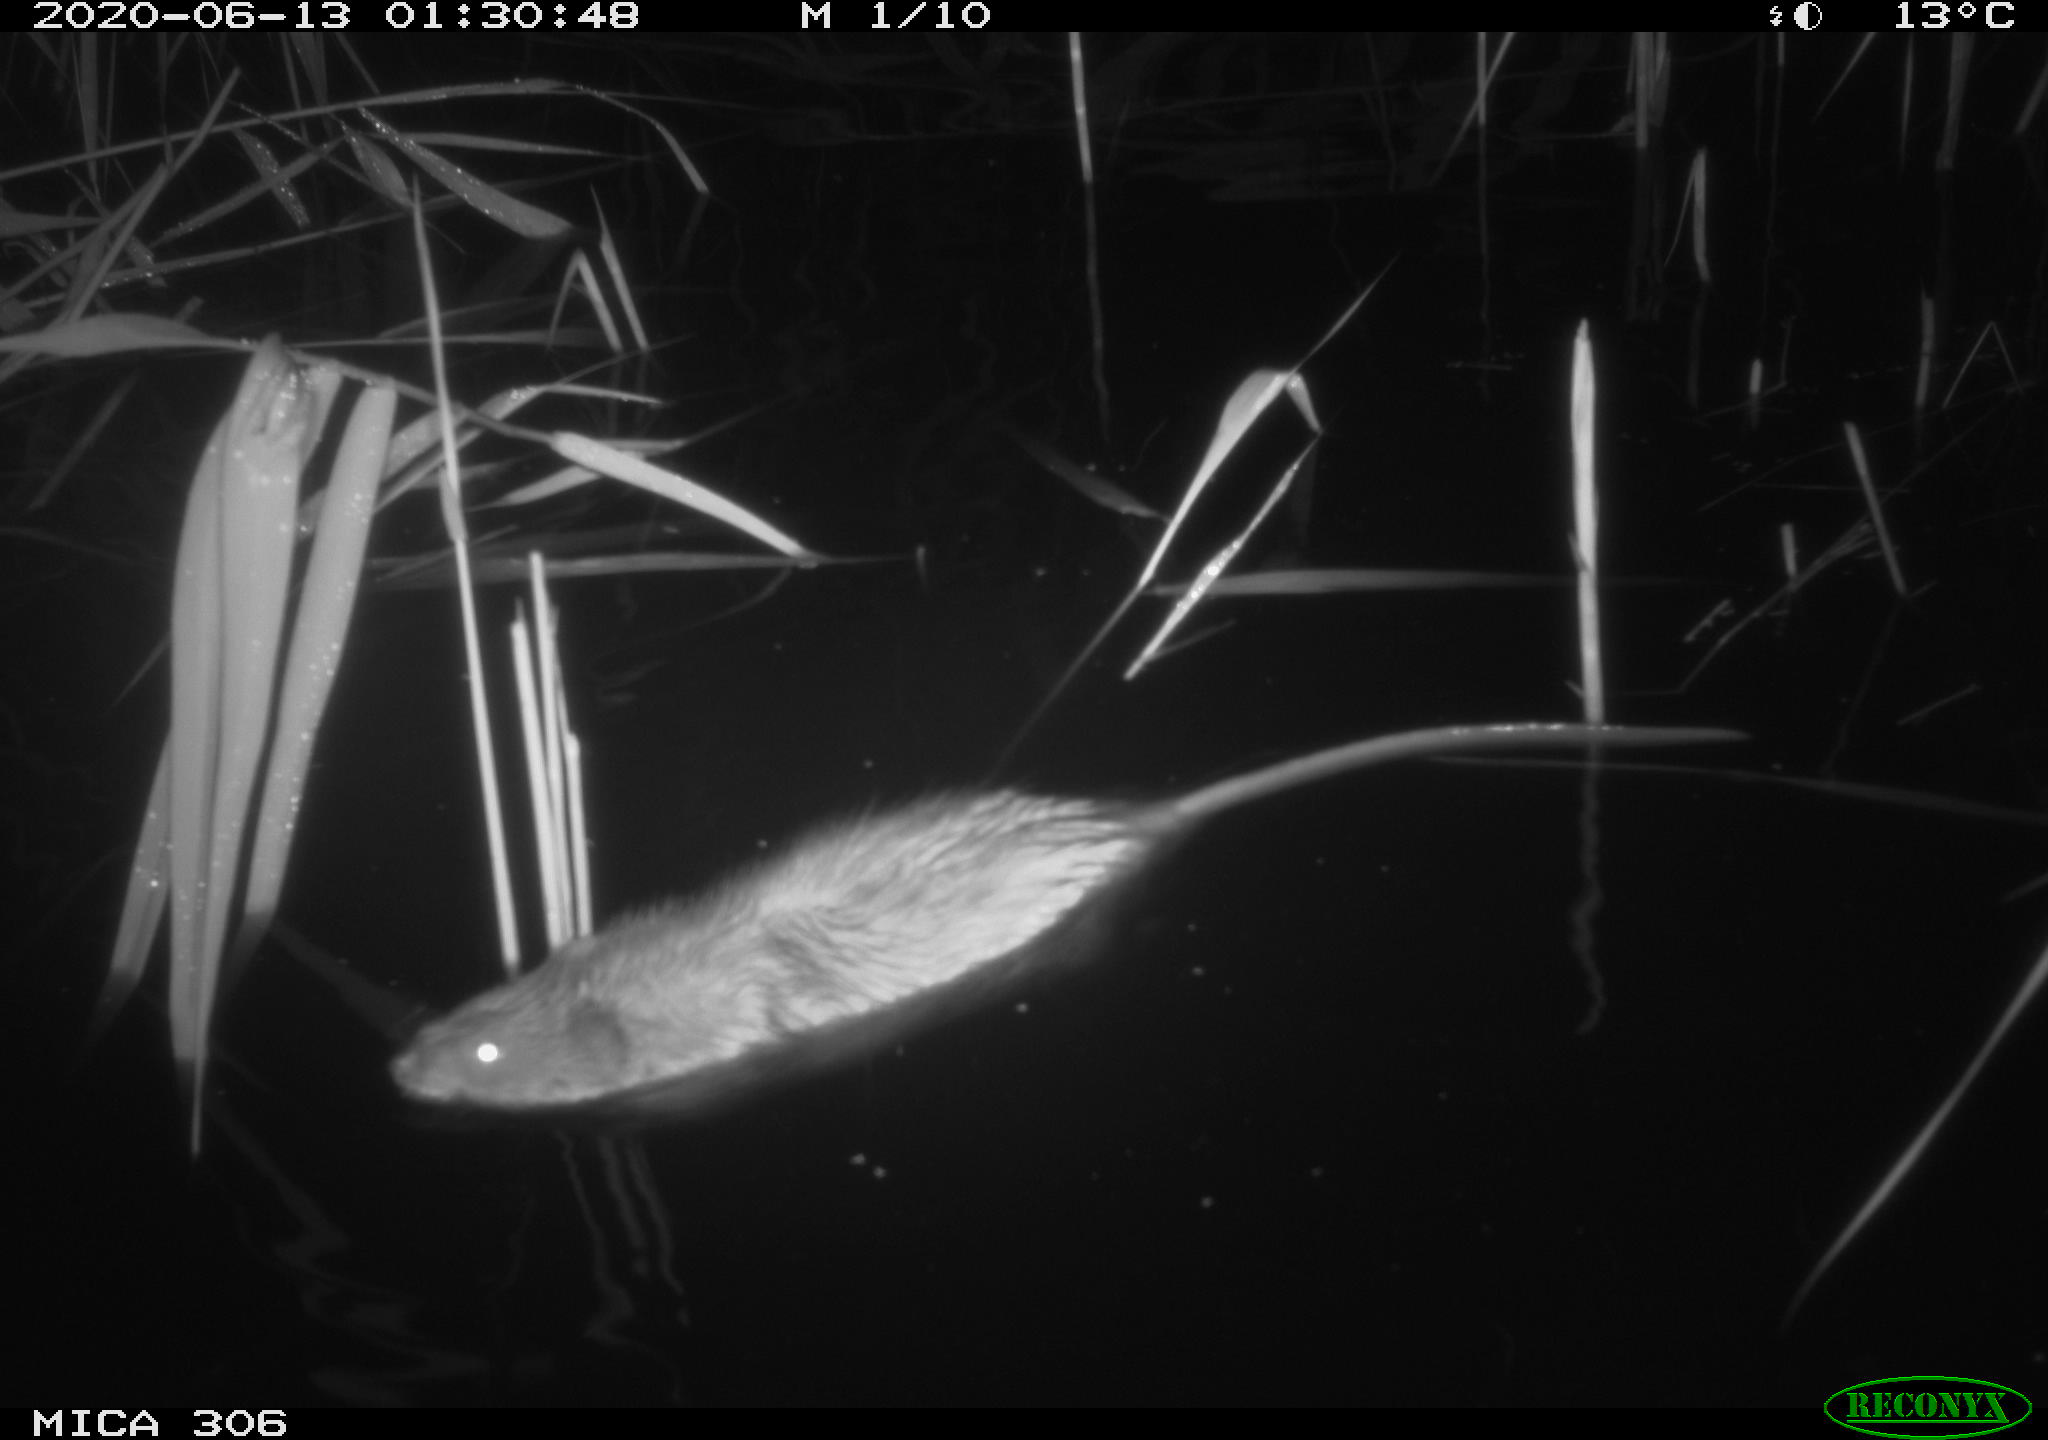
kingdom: Animalia
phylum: Chordata
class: Mammalia
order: Rodentia
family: Muridae
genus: Rattus
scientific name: Rattus norvegicus
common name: Brown rat
